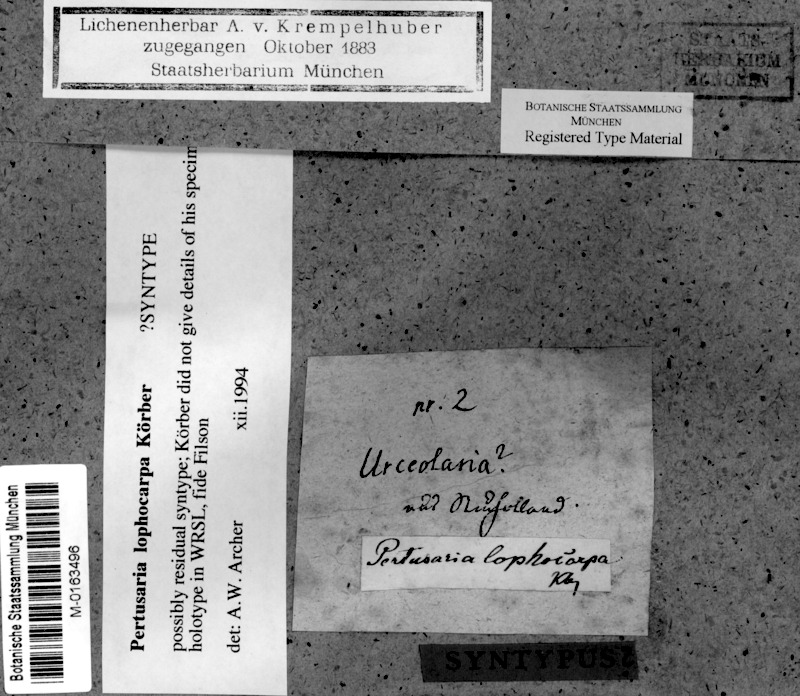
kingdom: Fungi
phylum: Ascomycota
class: Lecanoromycetes
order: Pertusariales
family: Pertusariaceae
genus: Pertusaria
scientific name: Pertusaria lophocarpa
